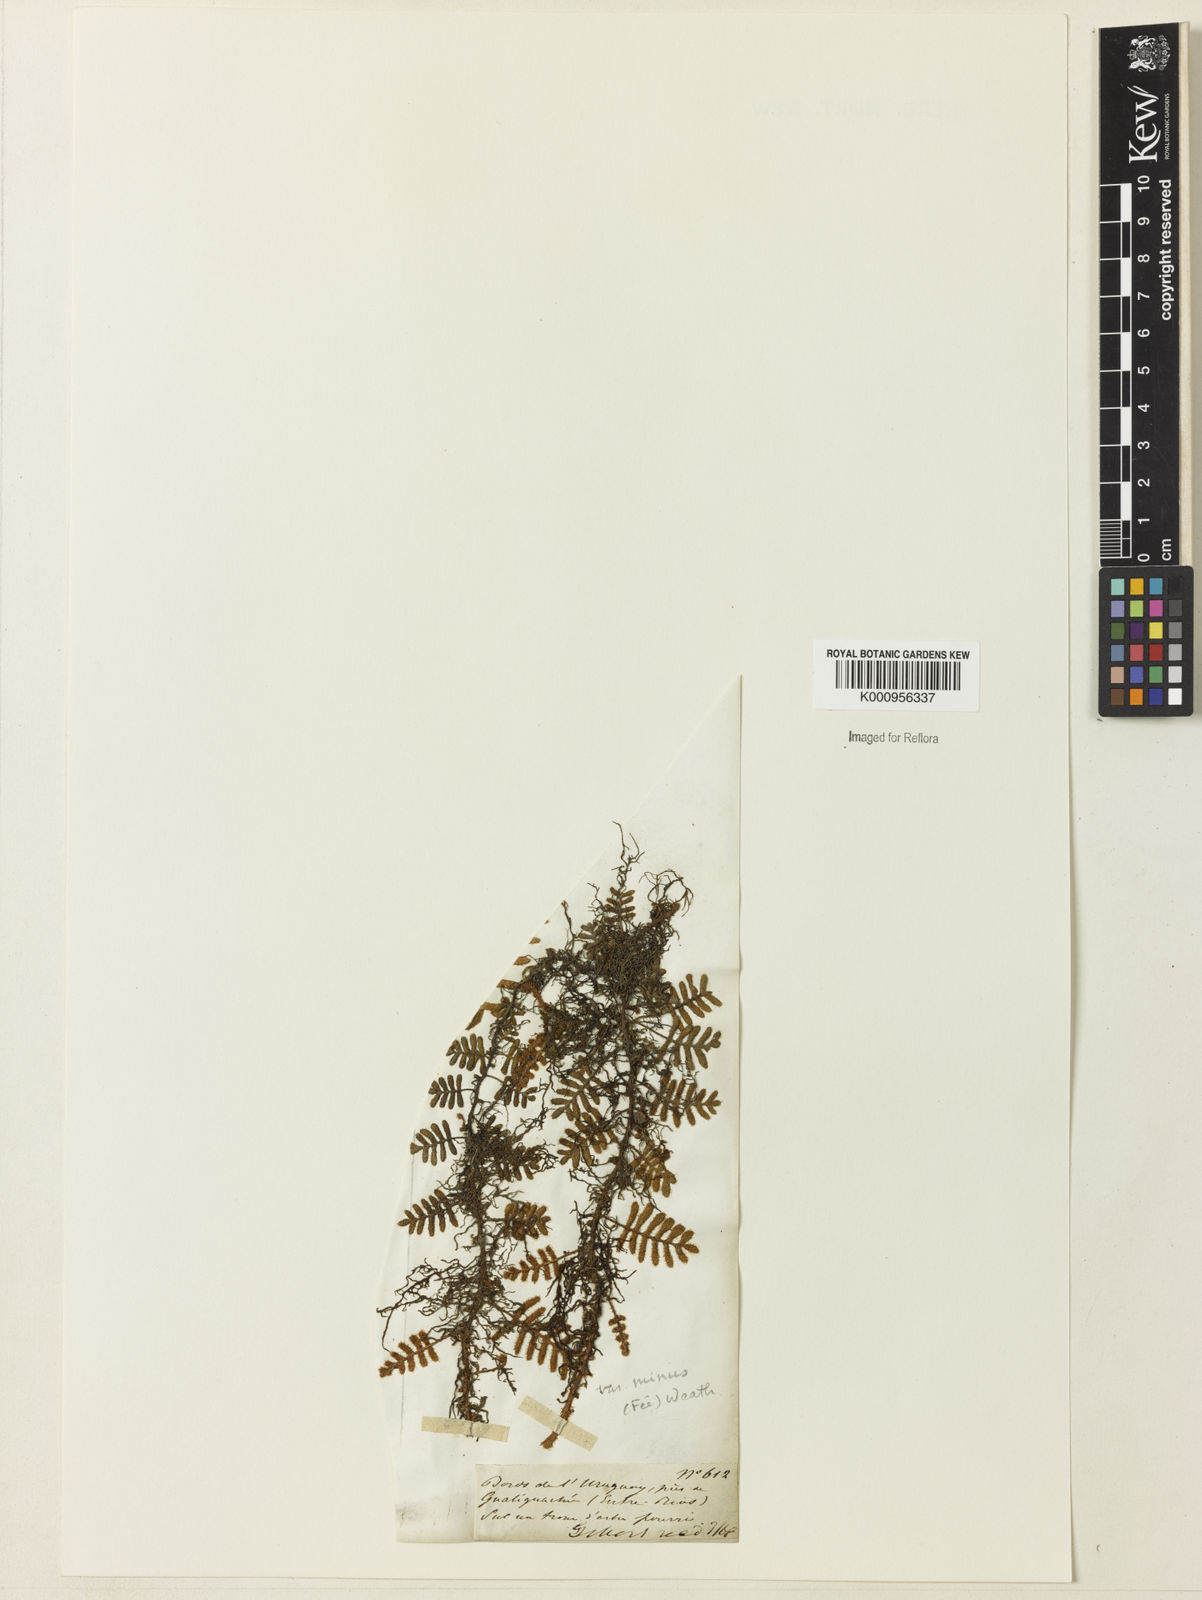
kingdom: Plantae
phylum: Tracheophyta
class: Polypodiopsida
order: Polypodiales
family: Polypodiaceae
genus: Pleopeltis
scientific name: Pleopeltis polypodioides
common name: Resurrection fern
